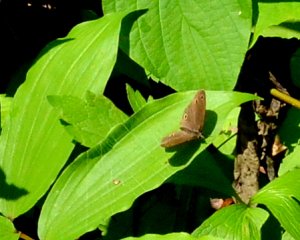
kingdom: Animalia
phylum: Arthropoda
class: Insecta
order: Lepidoptera
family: Nymphalidae
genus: Euptychia
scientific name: Euptychia cymela
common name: Little Wood Satyr
